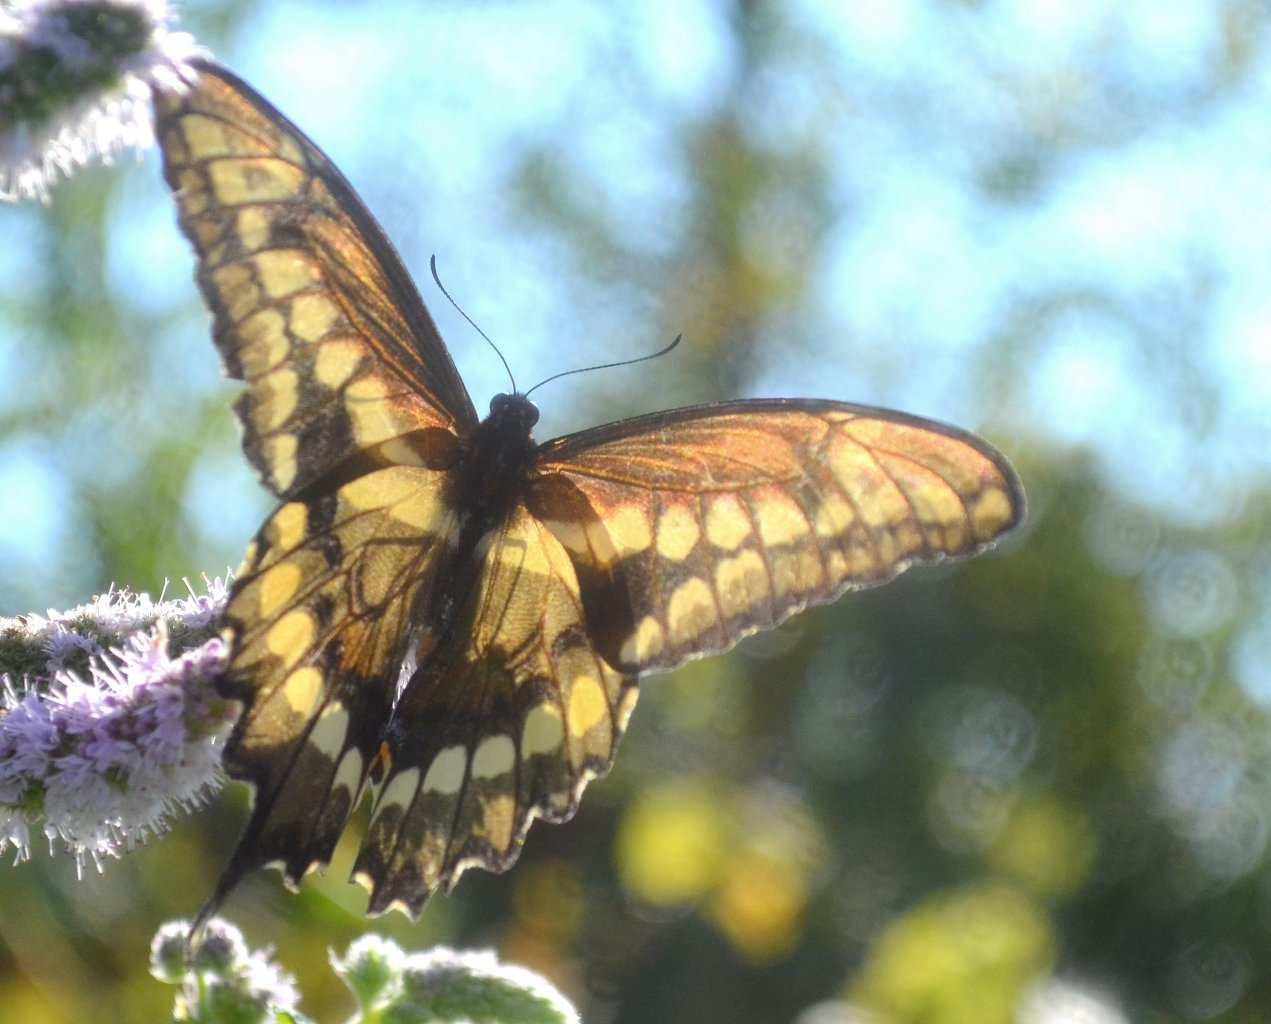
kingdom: Animalia
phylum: Arthropoda
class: Insecta
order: Lepidoptera
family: Papilionidae
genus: Papilio
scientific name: Papilio cresphontes
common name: Eastern Giant Swallowtail
